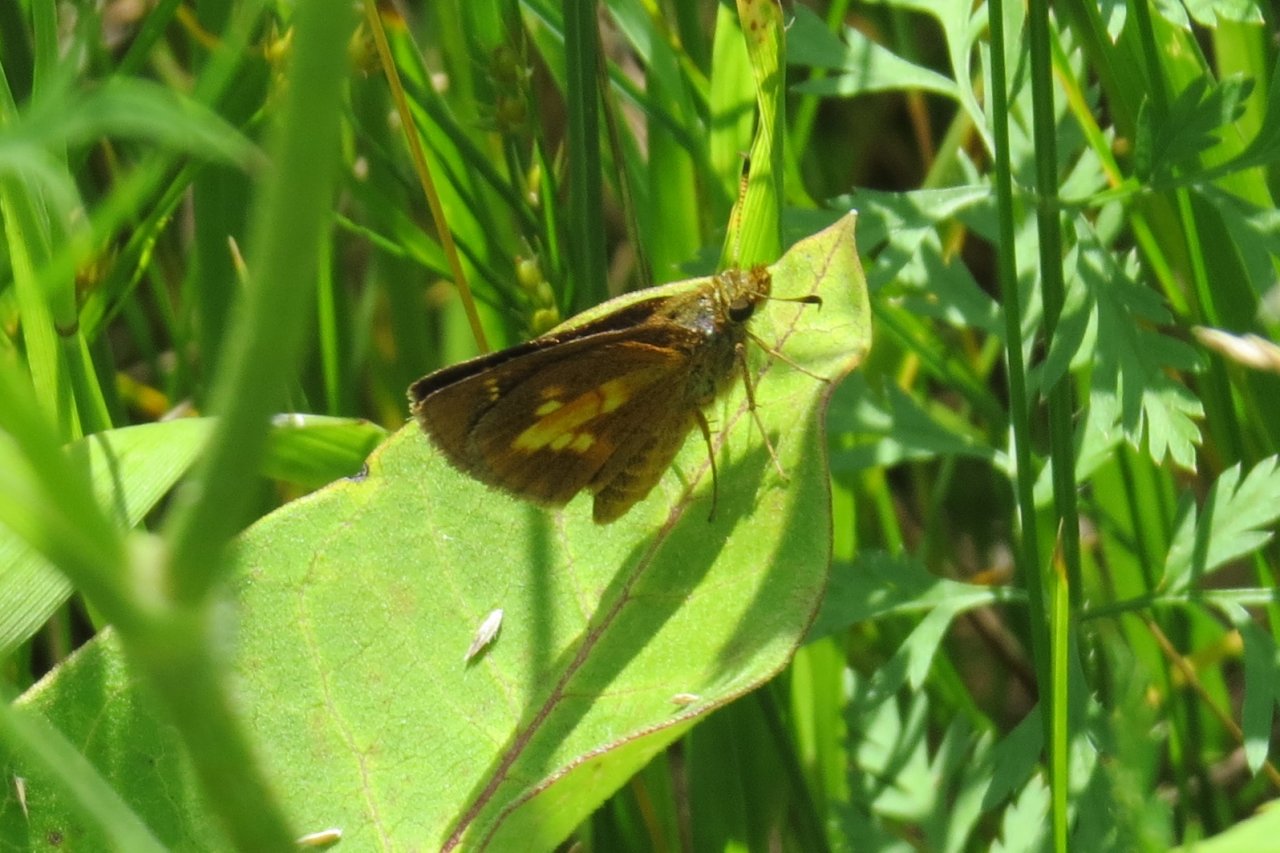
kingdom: Animalia
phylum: Arthropoda
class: Insecta
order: Lepidoptera
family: Hesperiidae
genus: Poanes
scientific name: Poanes massasoit
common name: Mulberry Wing
